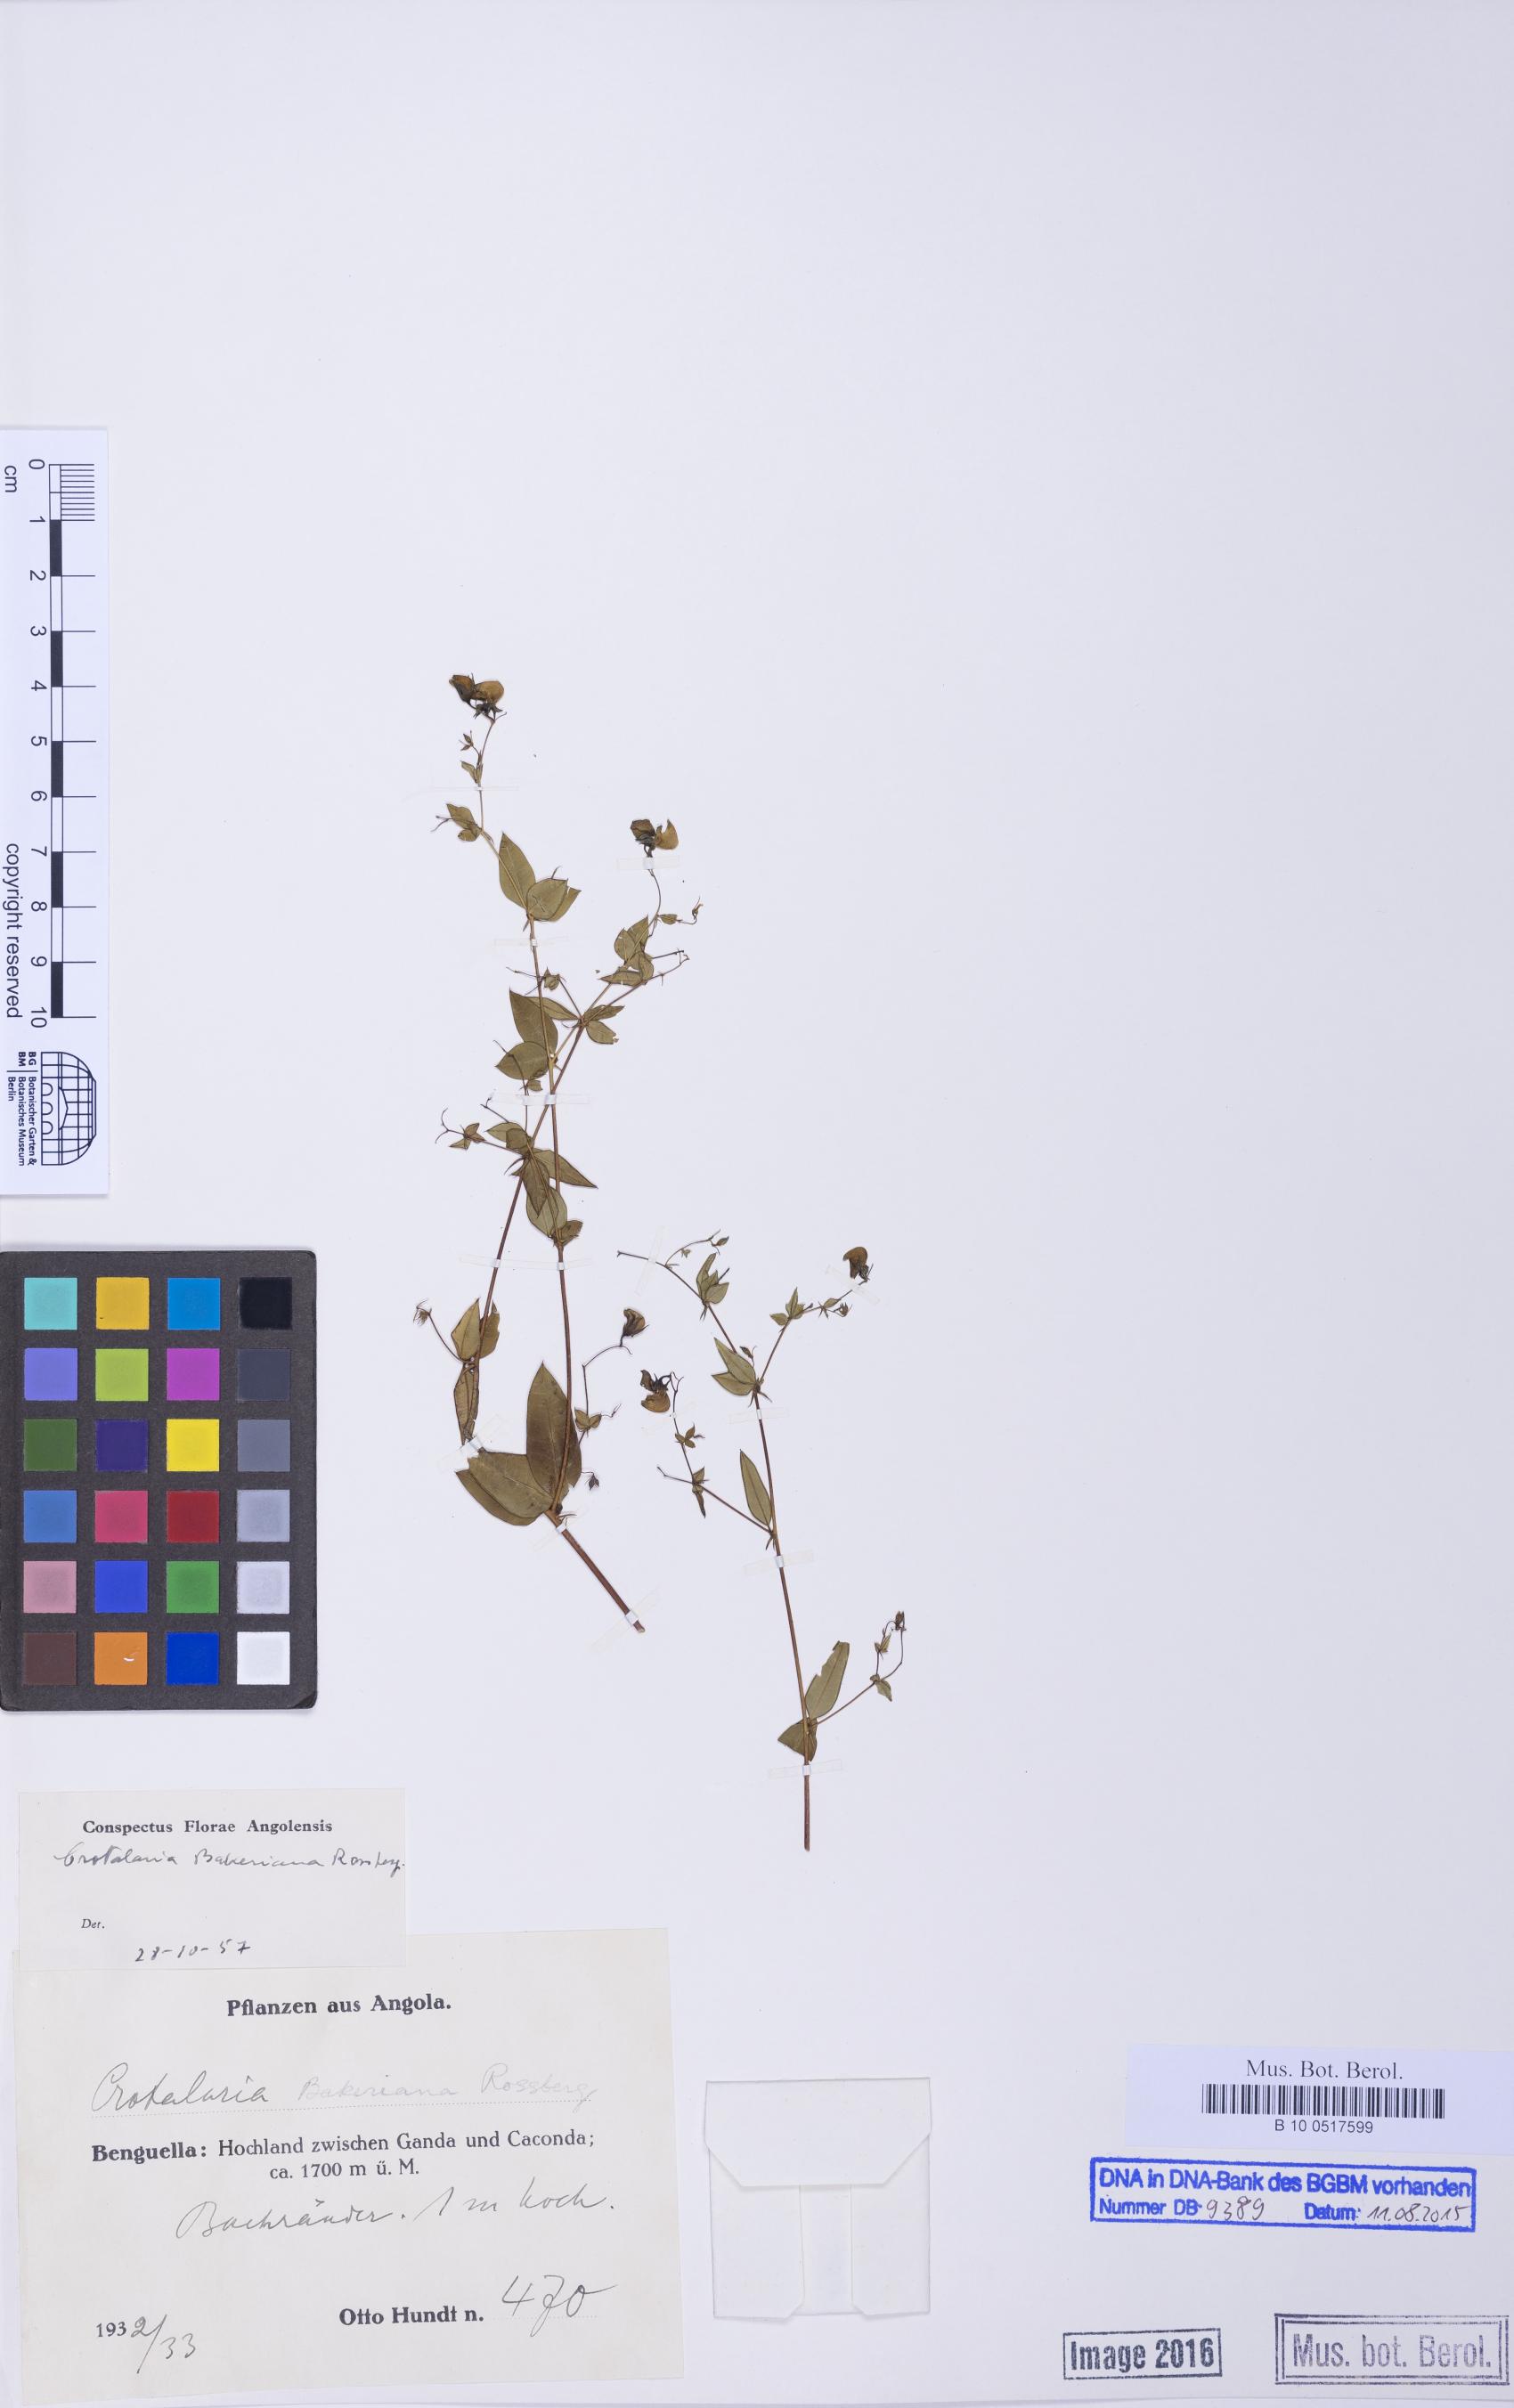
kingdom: Plantae
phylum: Tracheophyta
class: Magnoliopsida
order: Fabales
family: Fabaceae
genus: Crotalaria
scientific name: Crotalaria bakeriana
